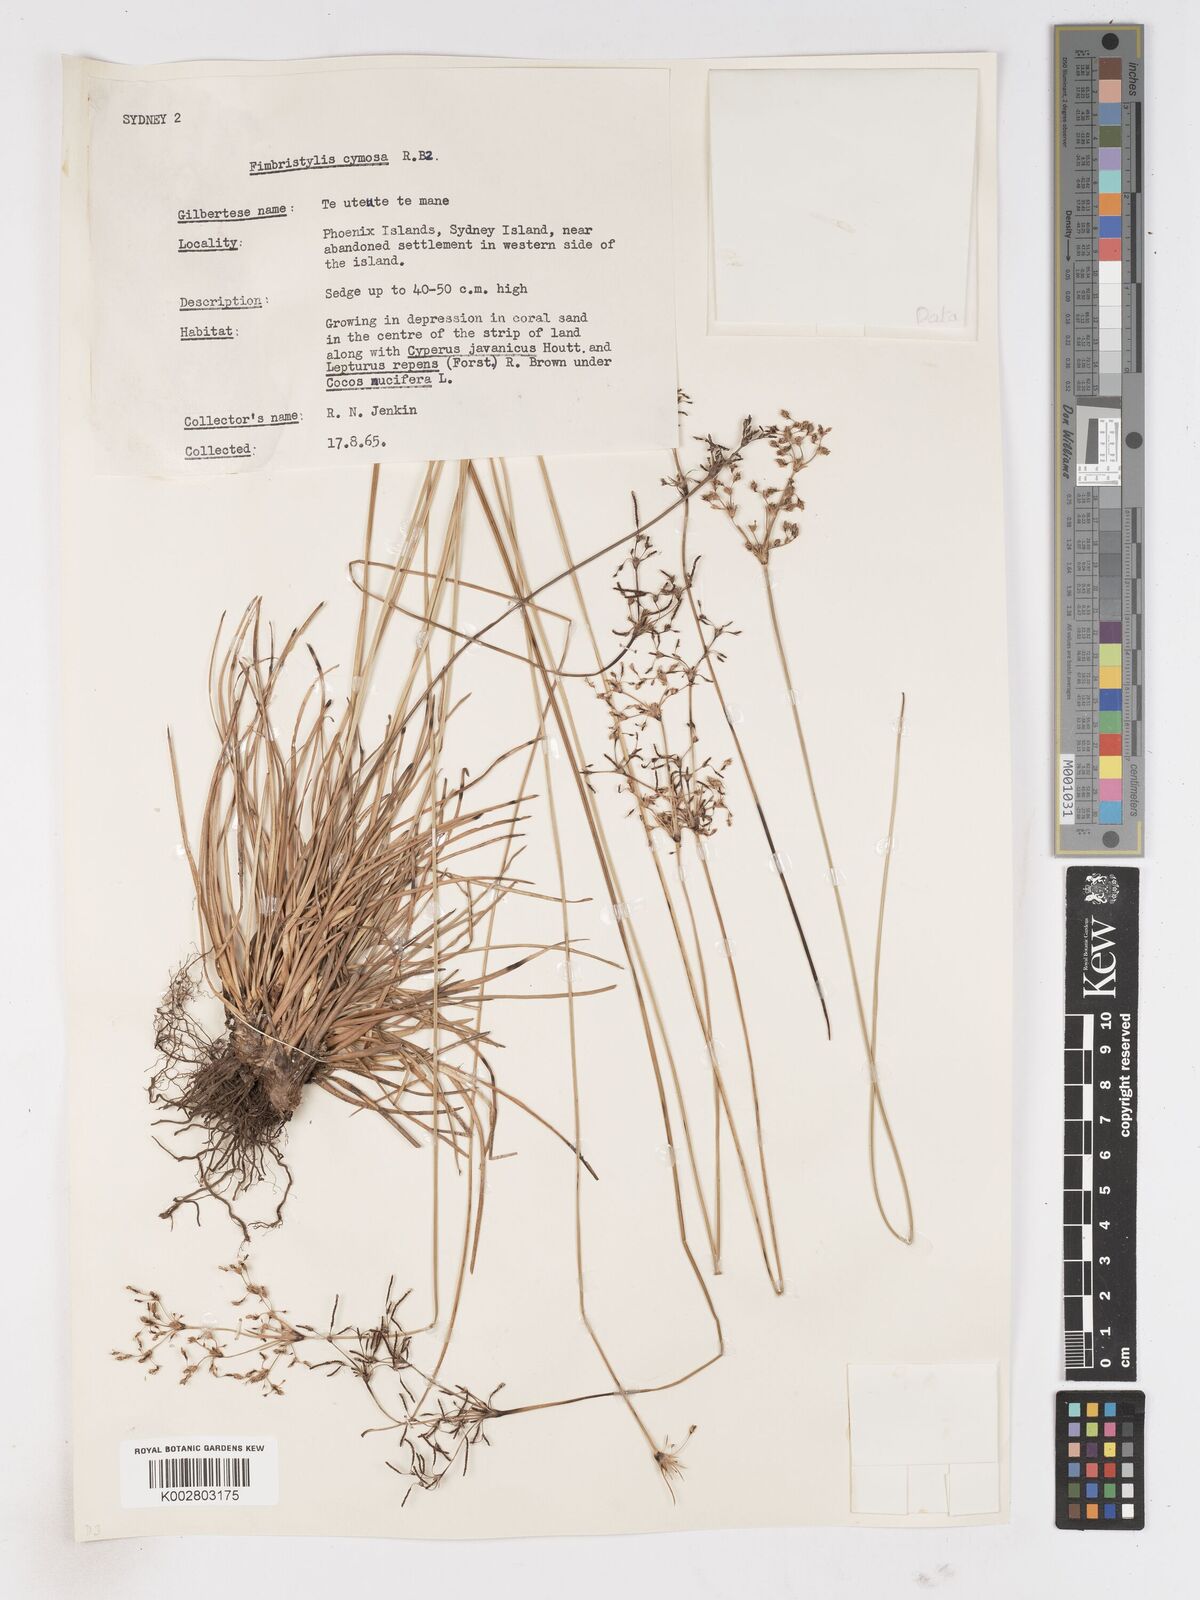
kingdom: Plantae
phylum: Tracheophyta
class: Liliopsida
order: Poales
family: Cyperaceae
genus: Fimbristylis
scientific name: Fimbristylis cymosa
